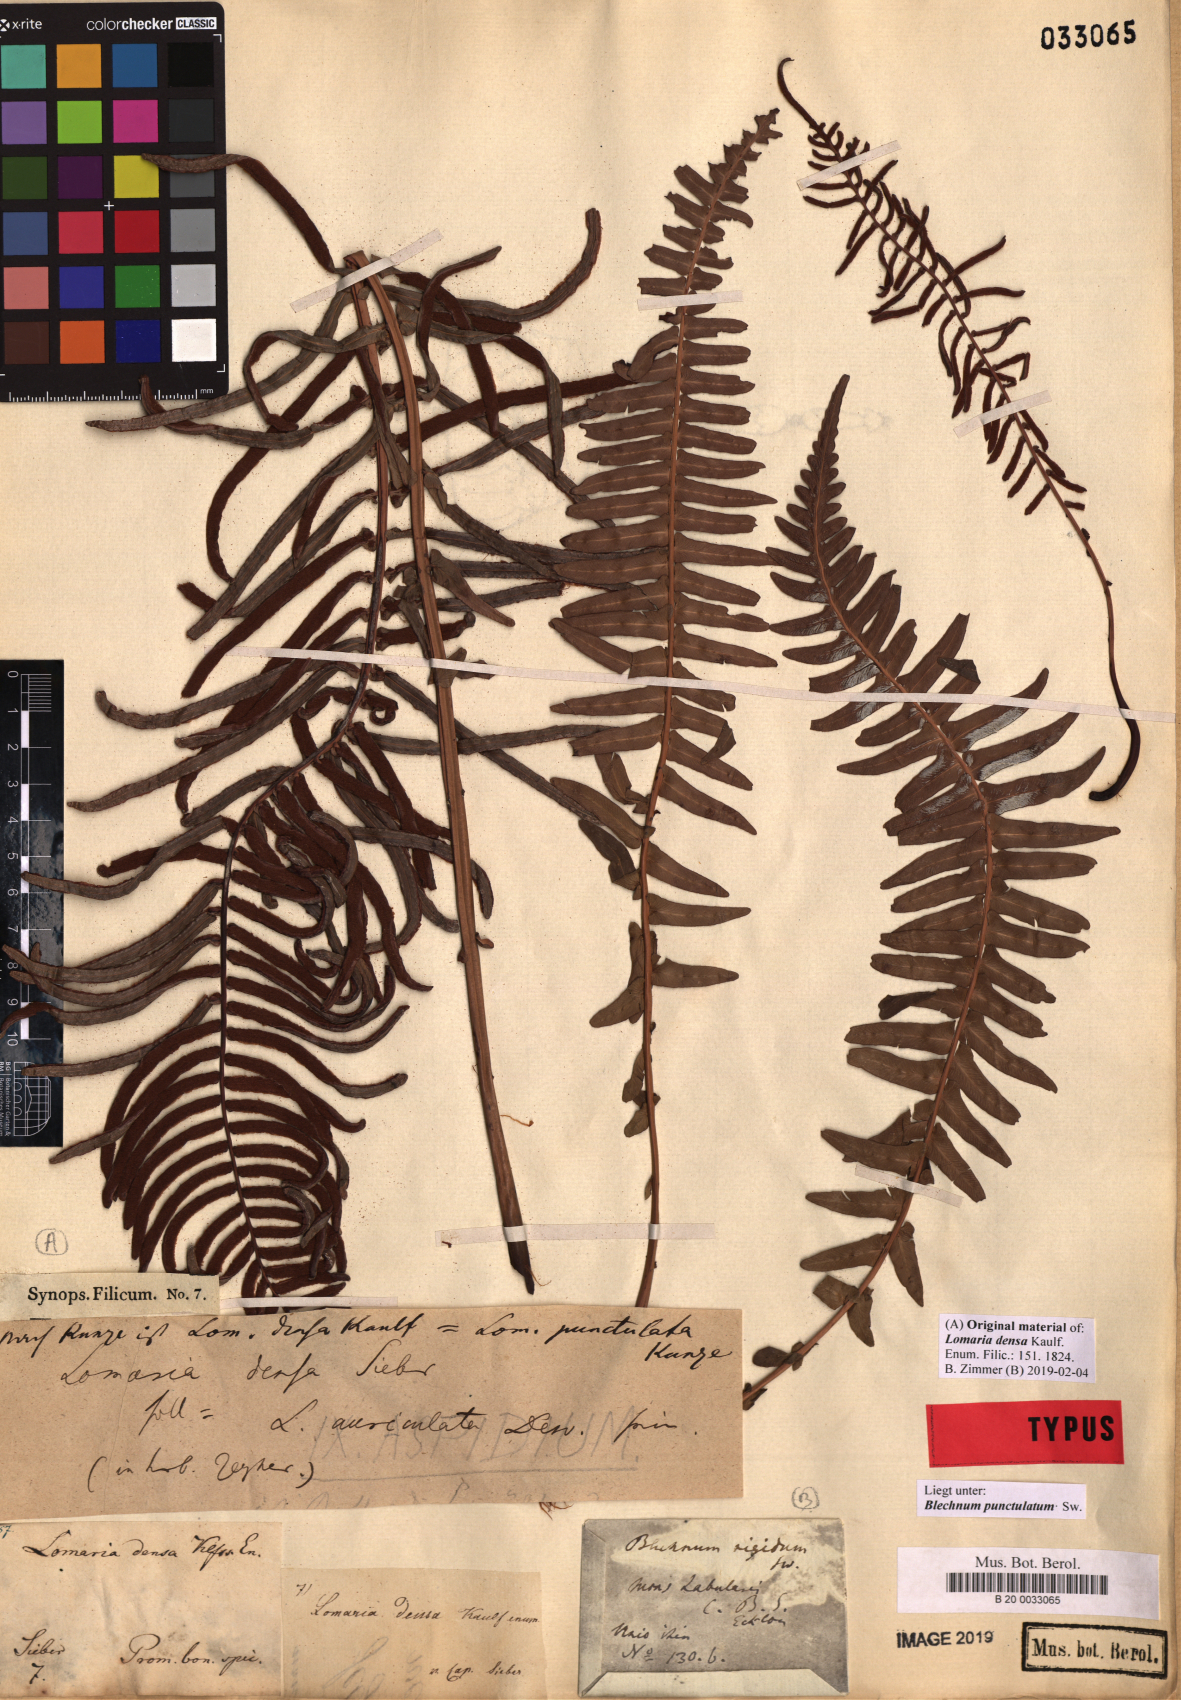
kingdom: Plantae
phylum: Tracheophyta
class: Polypodiopsida
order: Polypodiales
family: Blechnaceae
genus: Blechnum
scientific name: Blechnum punctulatum
